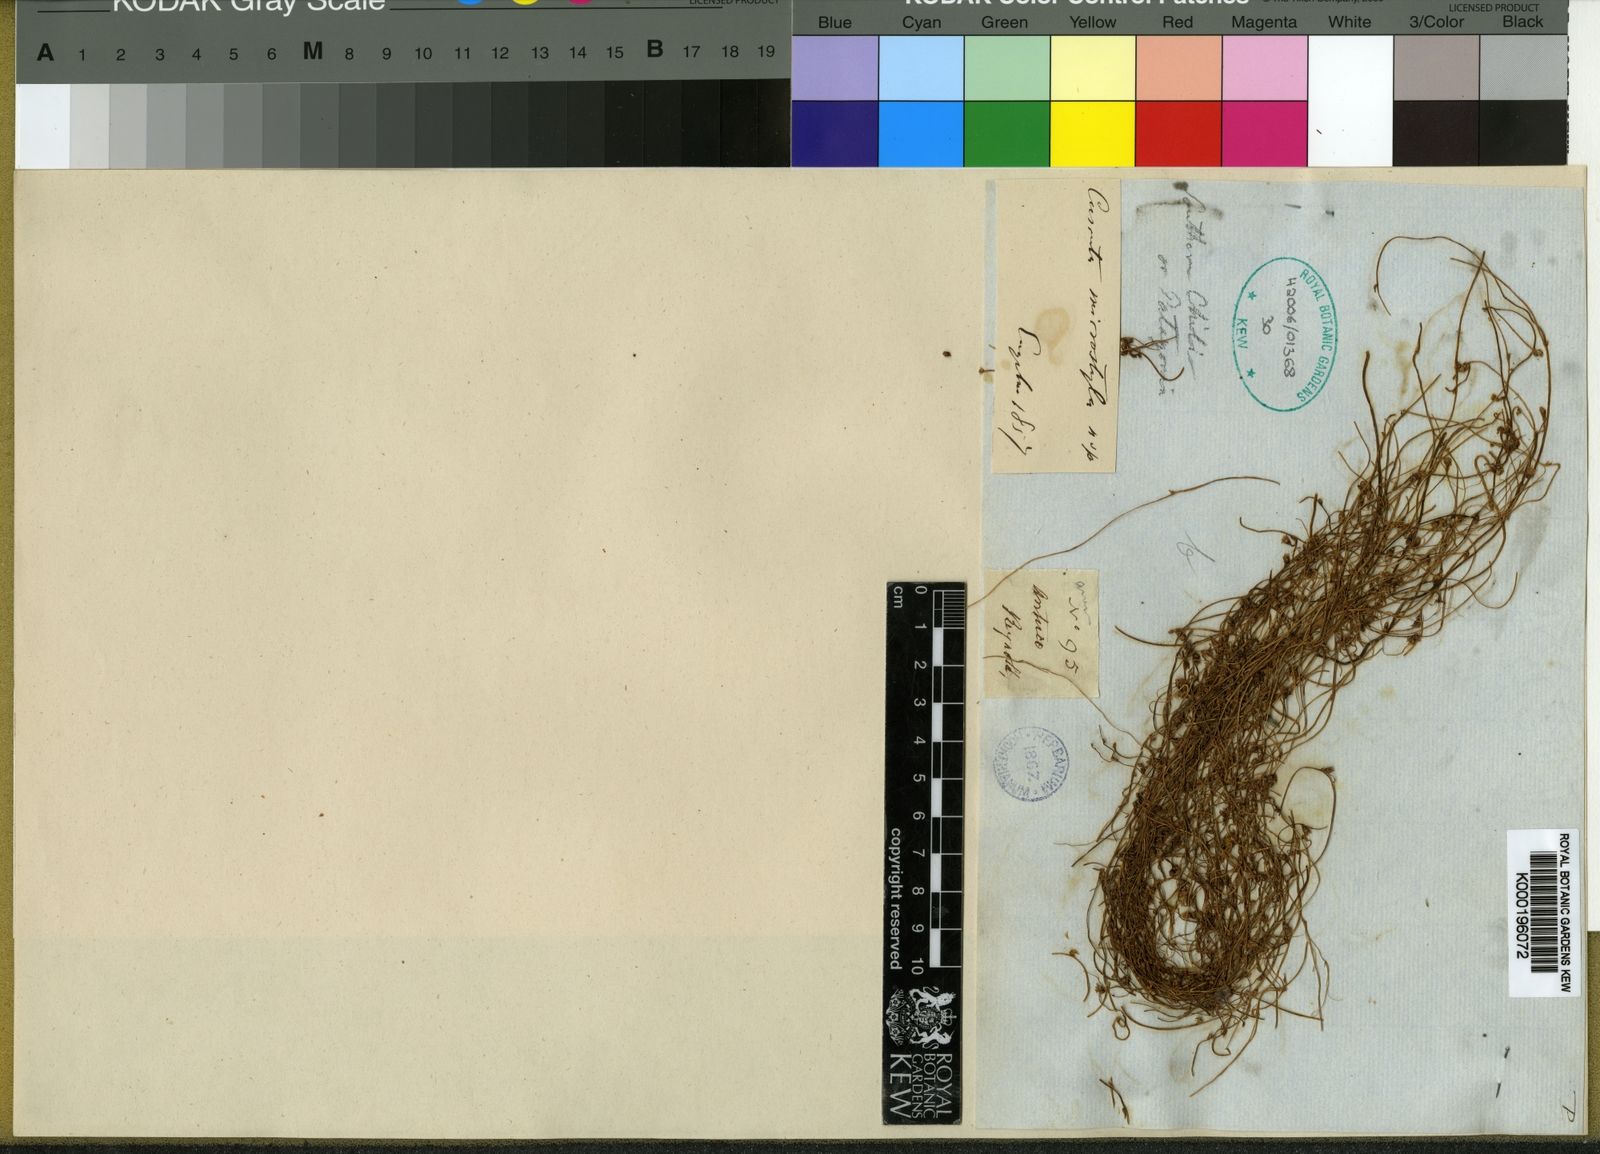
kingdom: Plantae
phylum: Tracheophyta
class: Magnoliopsida
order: Solanales
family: Convolvulaceae
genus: Cuscuta
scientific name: Cuscuta microstyla
